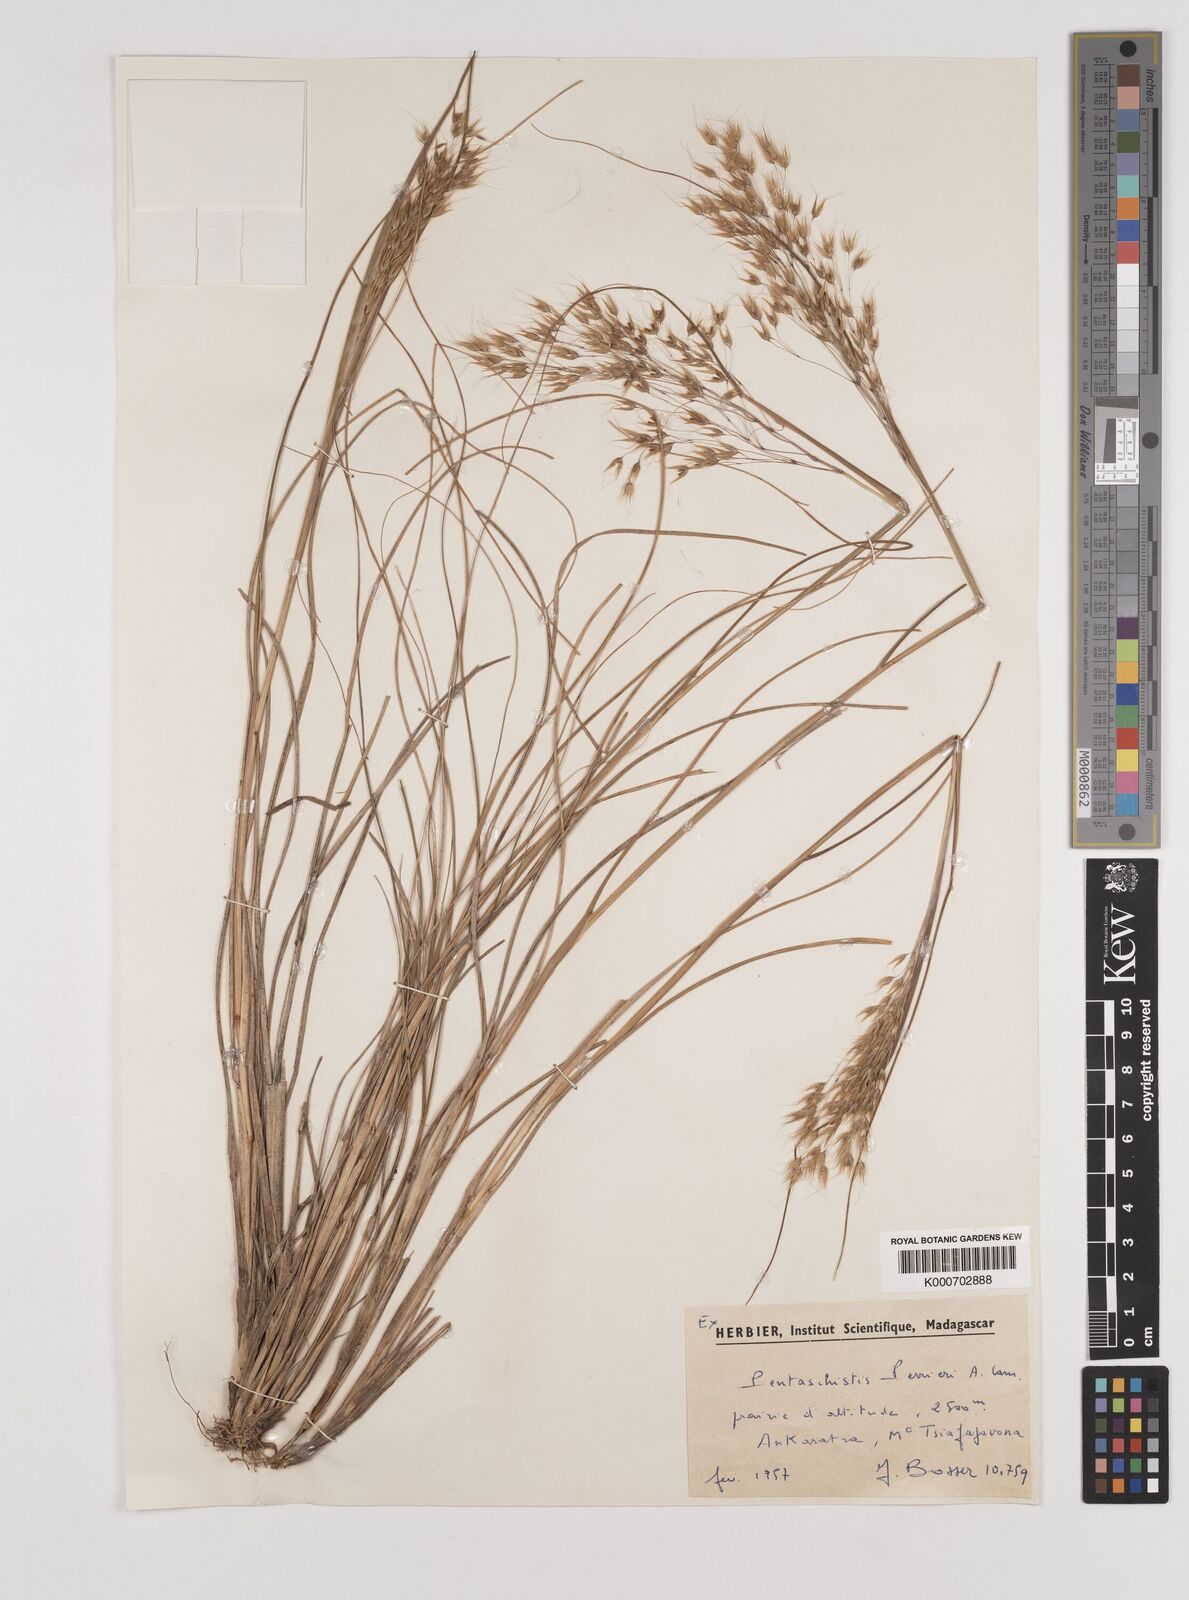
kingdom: Plantae
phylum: Tracheophyta
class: Liliopsida
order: Poales
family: Poaceae
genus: Pentameris
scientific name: Pentameris natalensis
